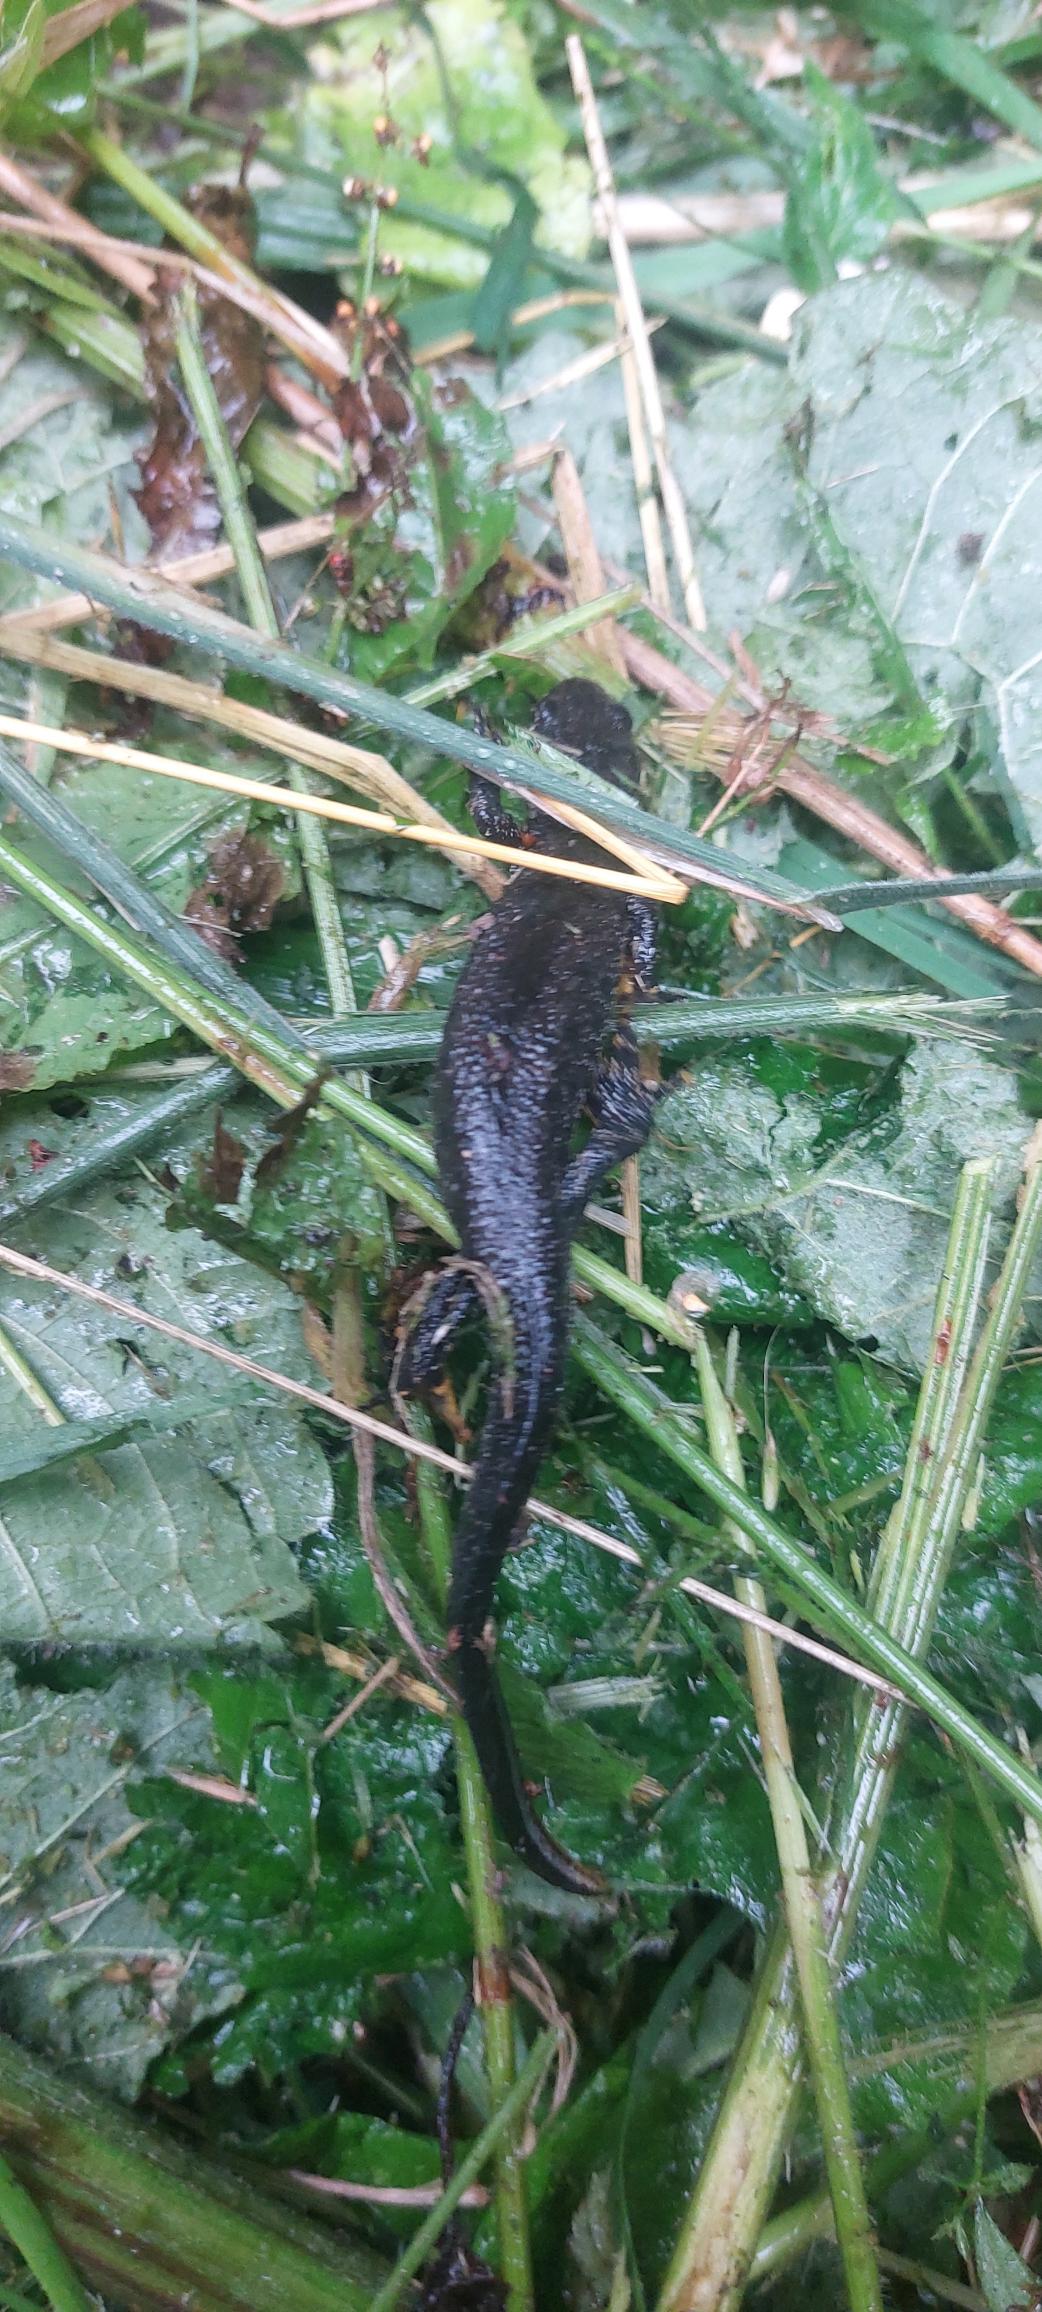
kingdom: Animalia
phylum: Chordata
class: Amphibia
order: Caudata
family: Salamandridae
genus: Triturus
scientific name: Triturus cristatus
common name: Stor vandsalamander
